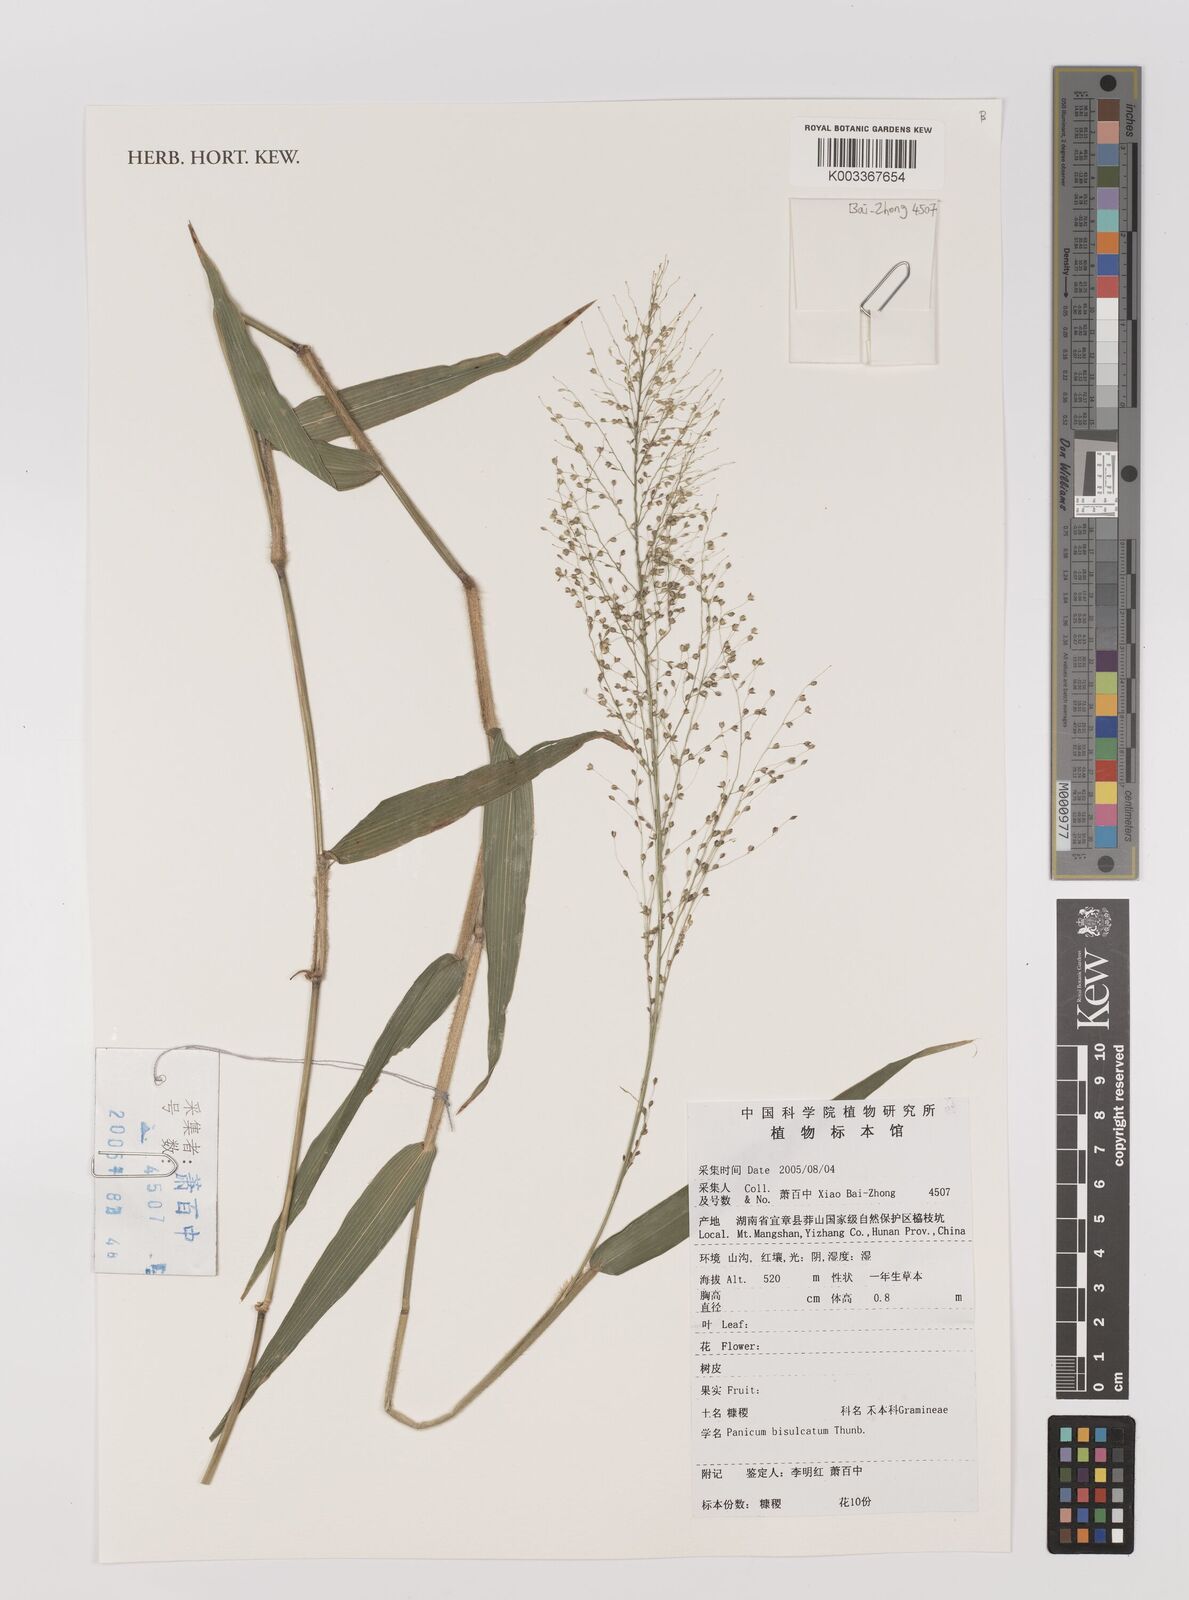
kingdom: Plantae
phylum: Tracheophyta
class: Liliopsida
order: Poales
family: Poaceae
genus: Panicum
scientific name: Panicum bisulcatum
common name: Japanese panicgrass
